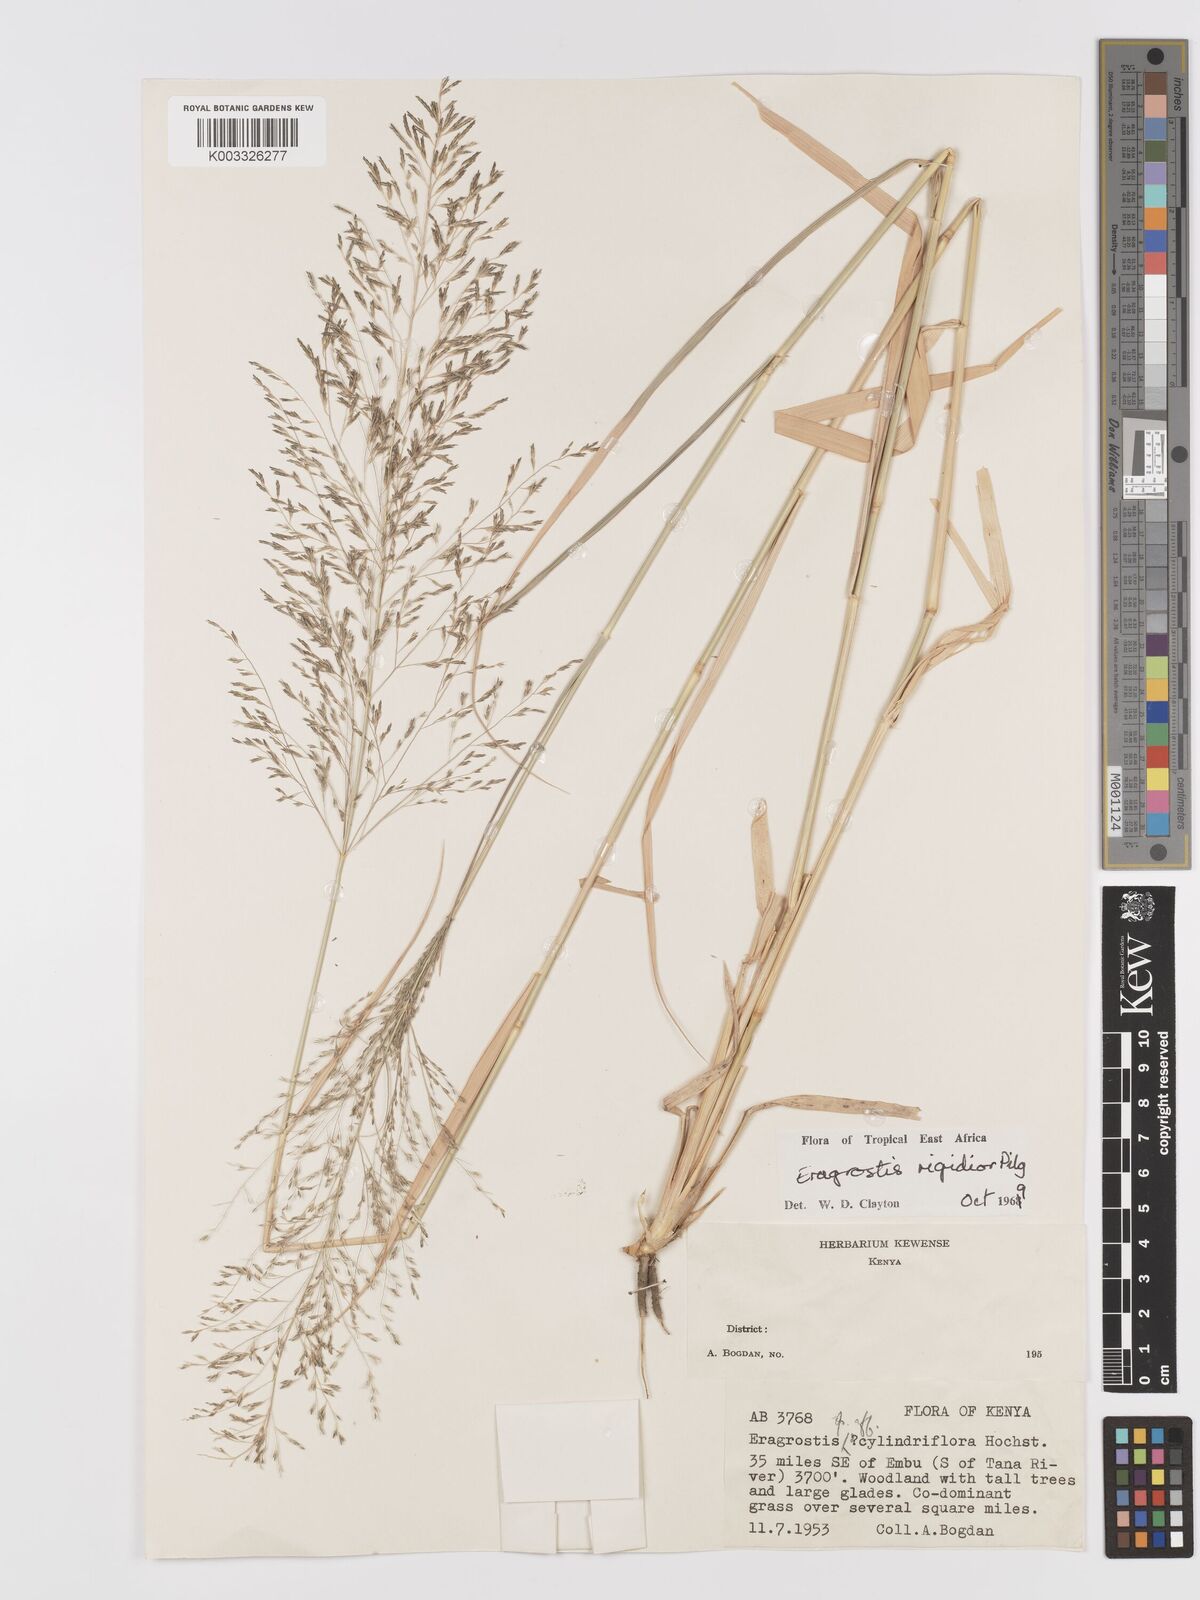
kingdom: Plantae
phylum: Tracheophyta
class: Liliopsida
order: Poales
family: Poaceae
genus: Eragrostis
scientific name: Eragrostis cylindriflora
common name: Cylinderflower lovegrass
